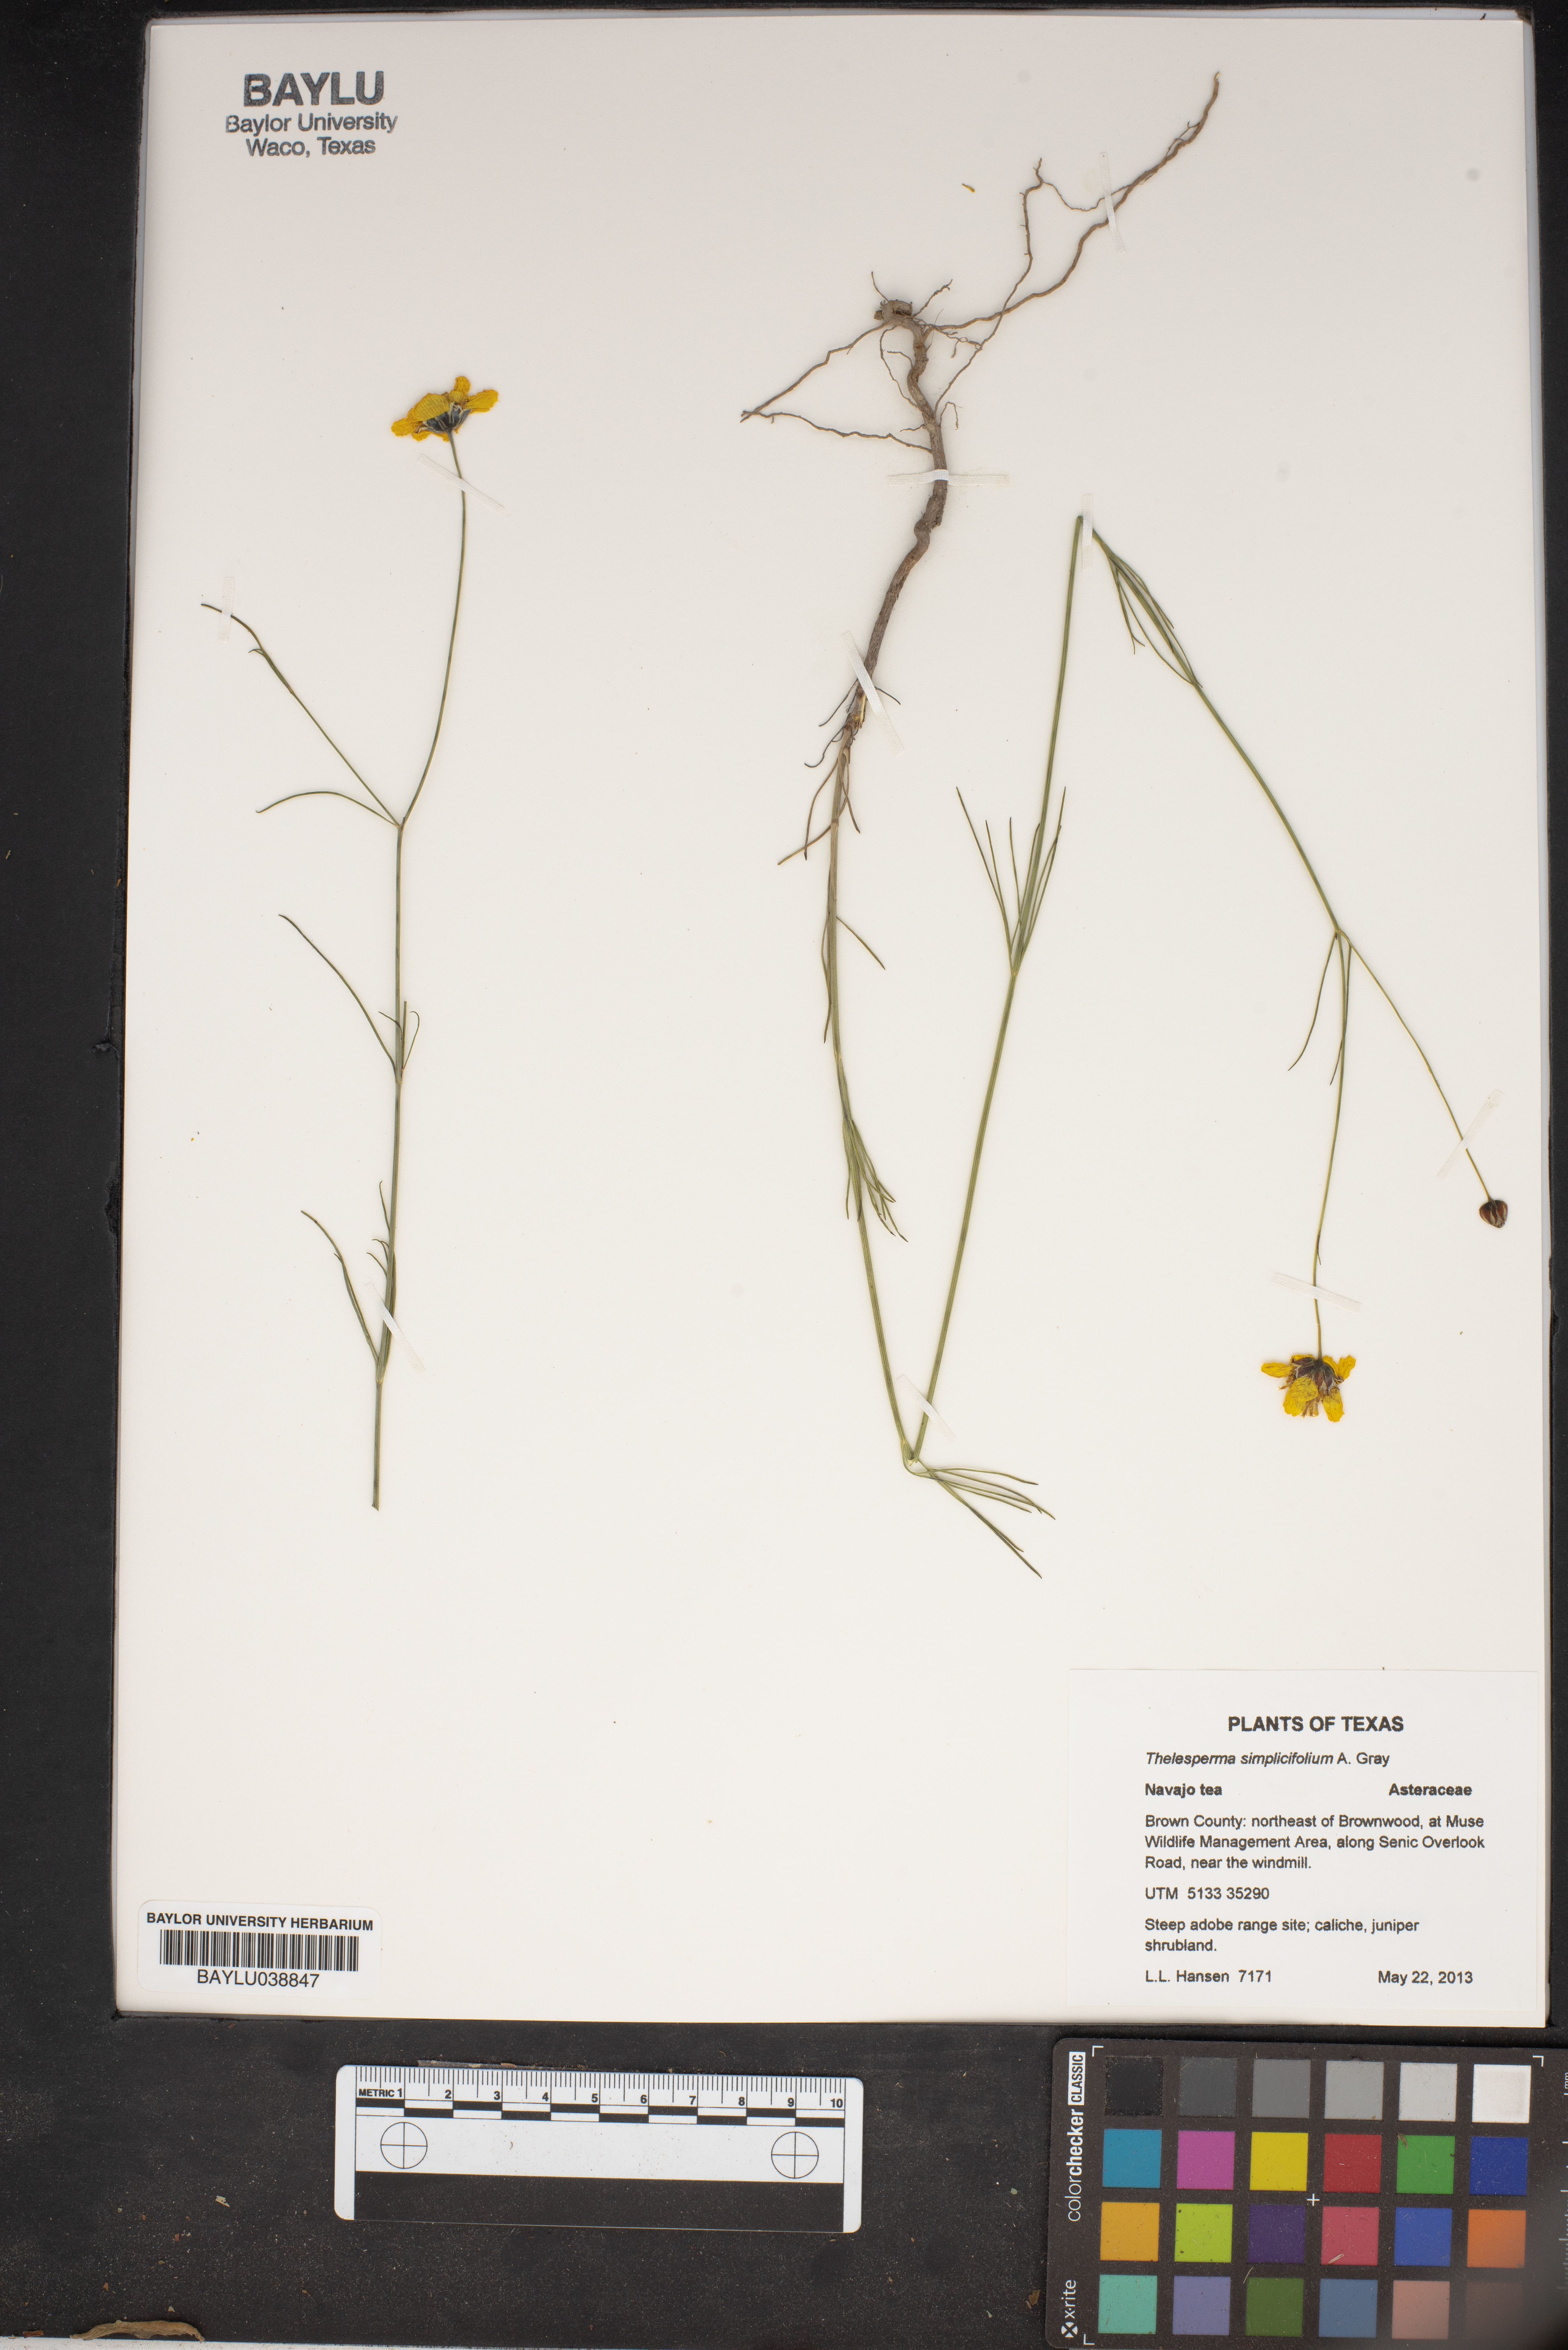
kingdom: Plantae
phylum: Tracheophyta
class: Magnoliopsida
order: Asterales
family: Asteraceae
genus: Thelesperma
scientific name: Thelesperma simplicifolium
